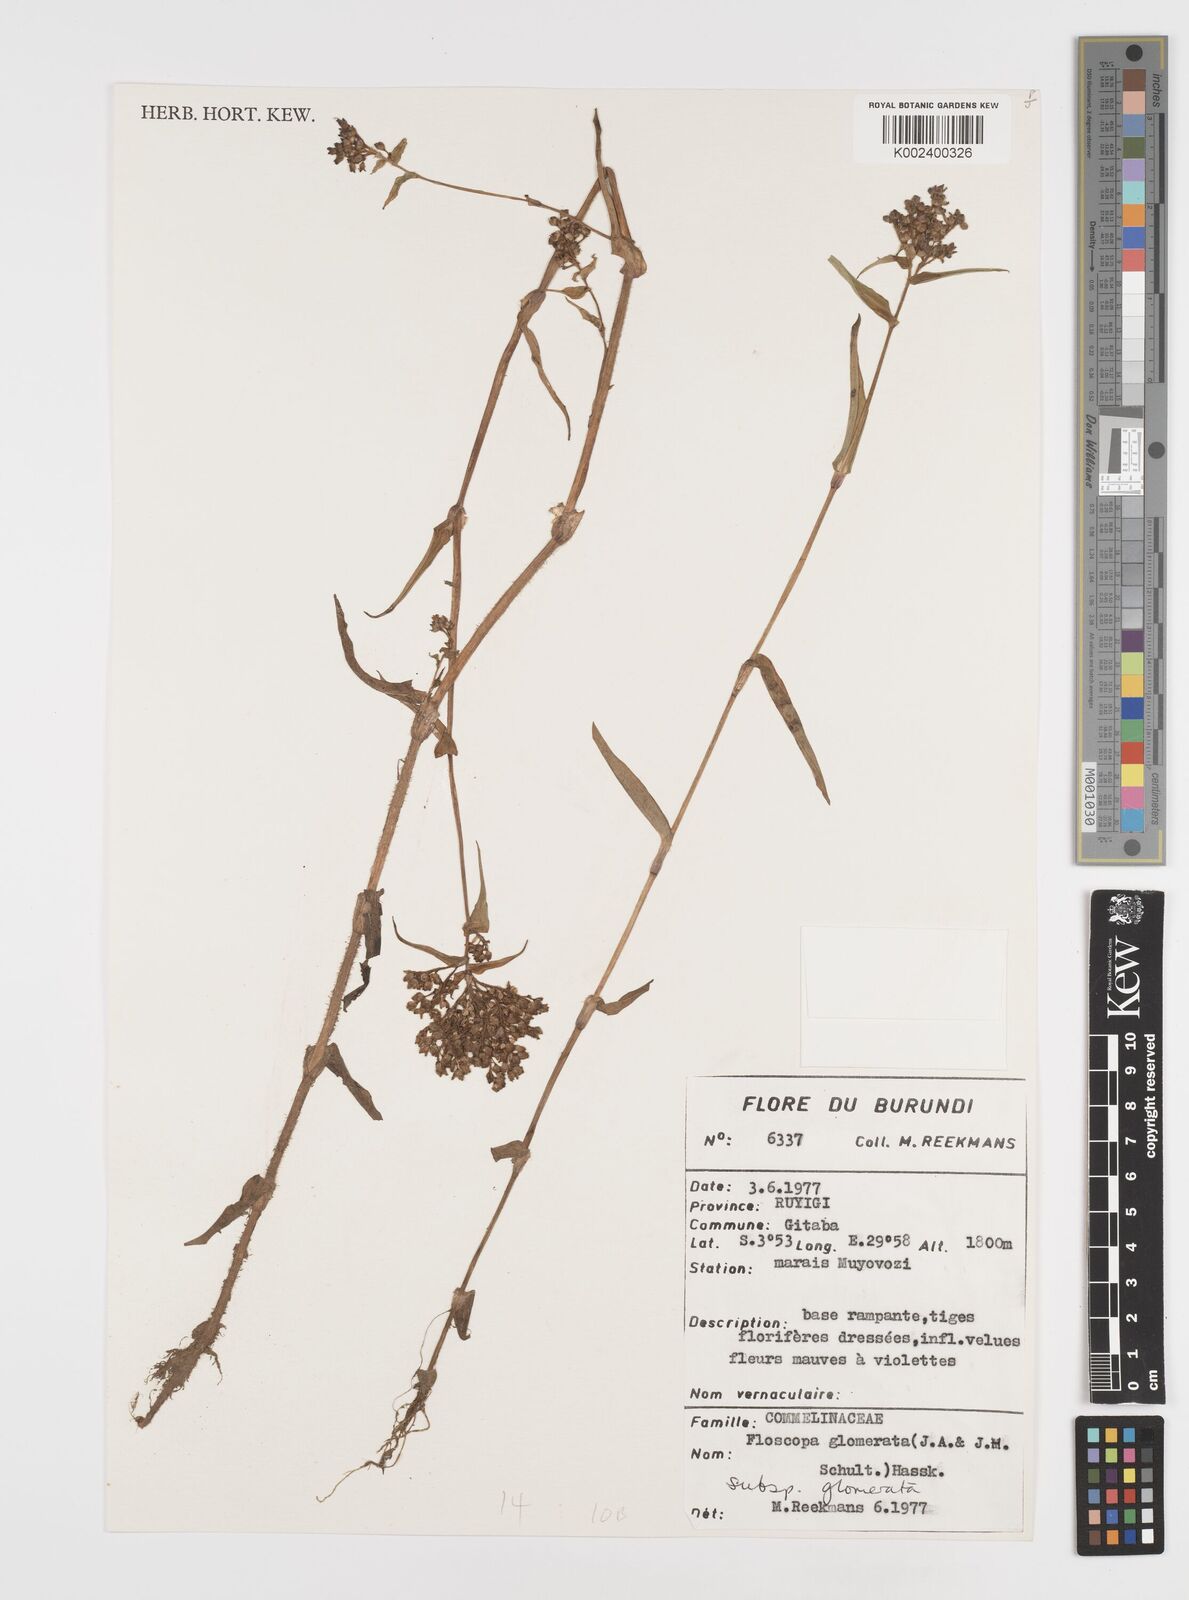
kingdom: Plantae
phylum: Tracheophyta
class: Liliopsida
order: Commelinales
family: Commelinaceae
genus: Floscopa
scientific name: Floscopa glomerata
